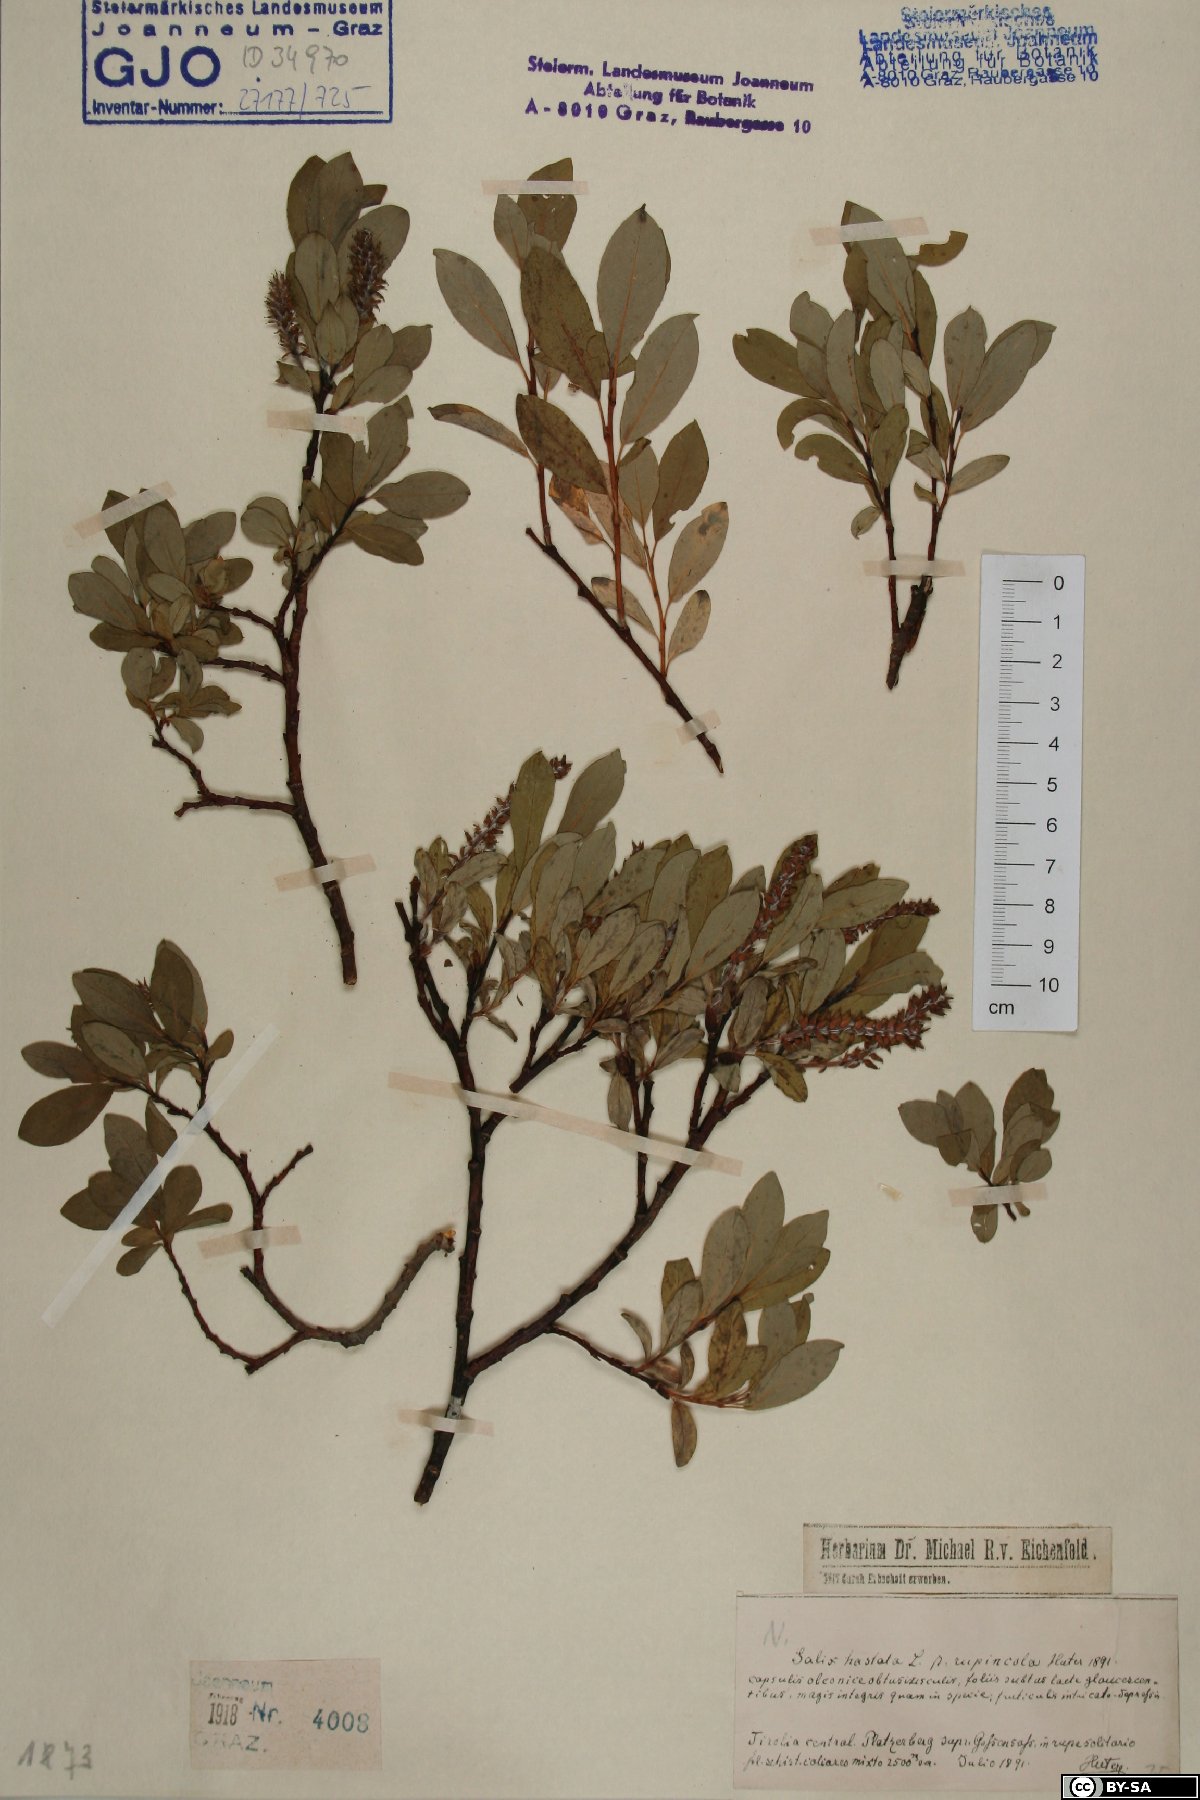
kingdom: Plantae
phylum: Tracheophyta
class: Magnoliopsida
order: Malpighiales
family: Salicaceae
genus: Salix
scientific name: Salix hastata
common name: Halberd willow
